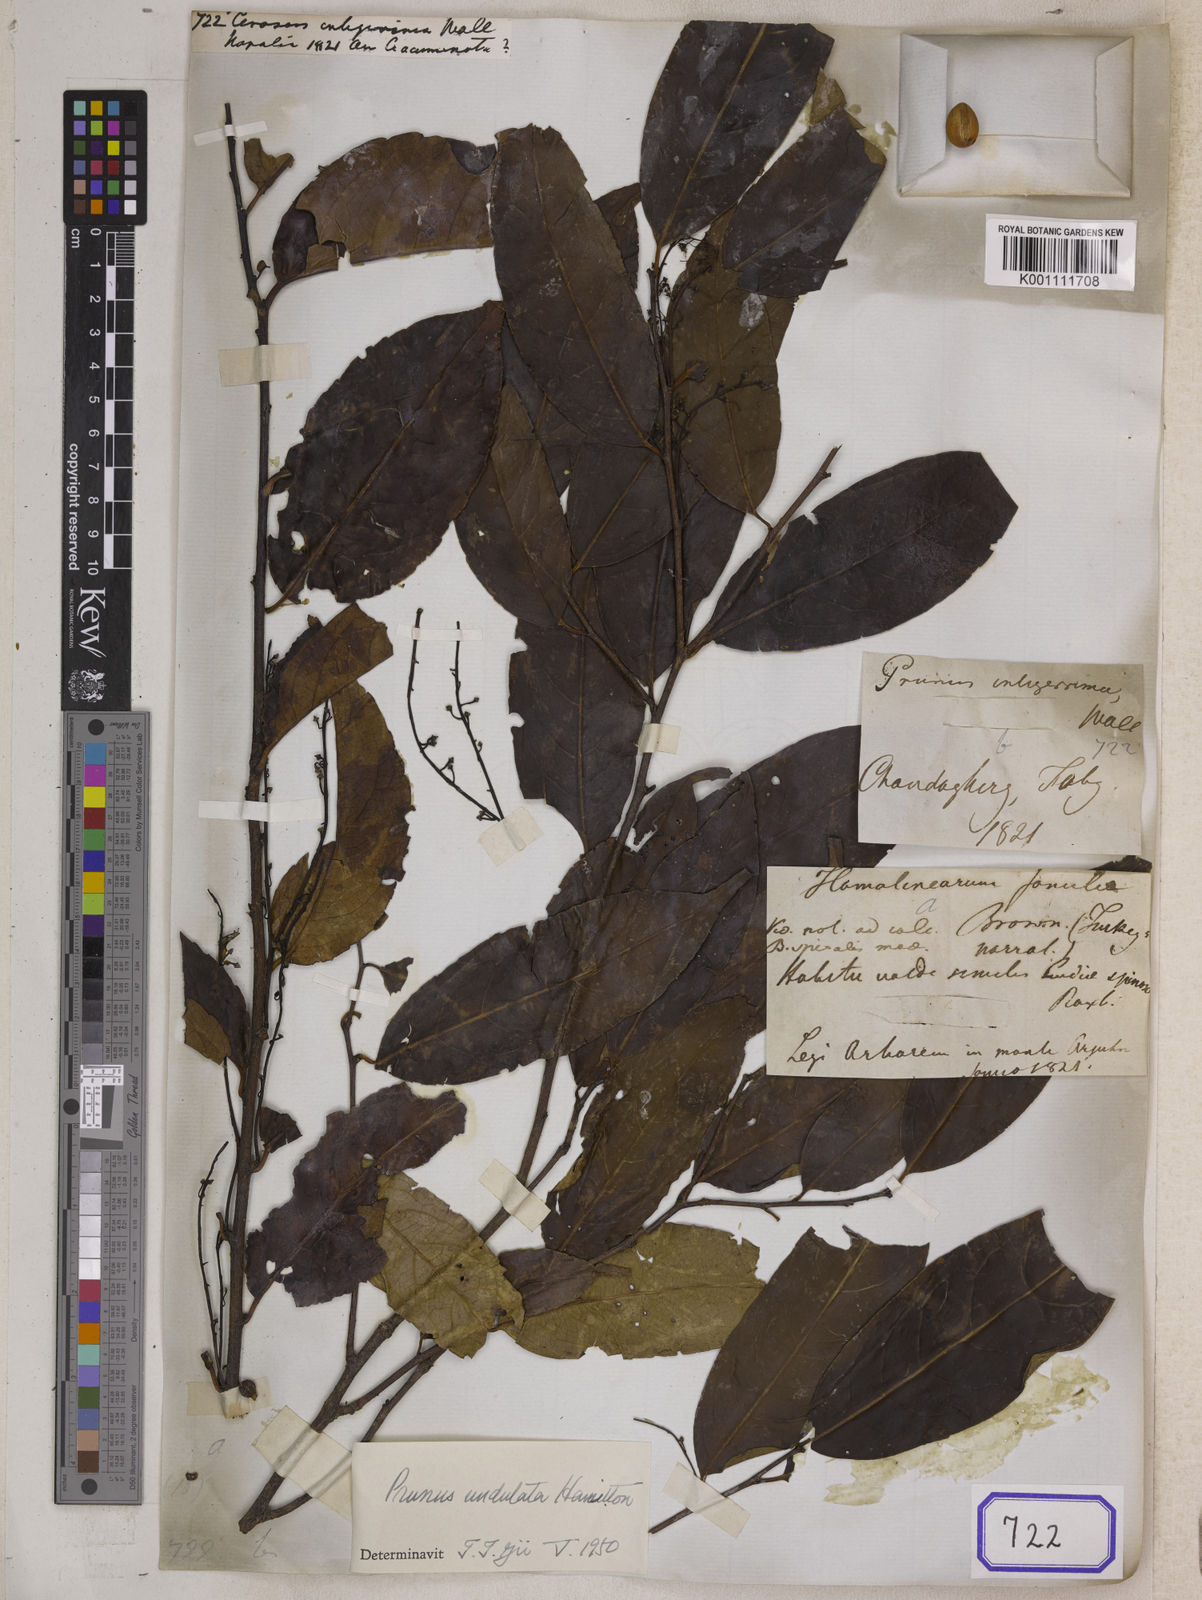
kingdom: Plantae
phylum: Tracheophyta
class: Magnoliopsida
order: Rosales
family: Rosaceae
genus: Prunus
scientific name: Prunus undulata
